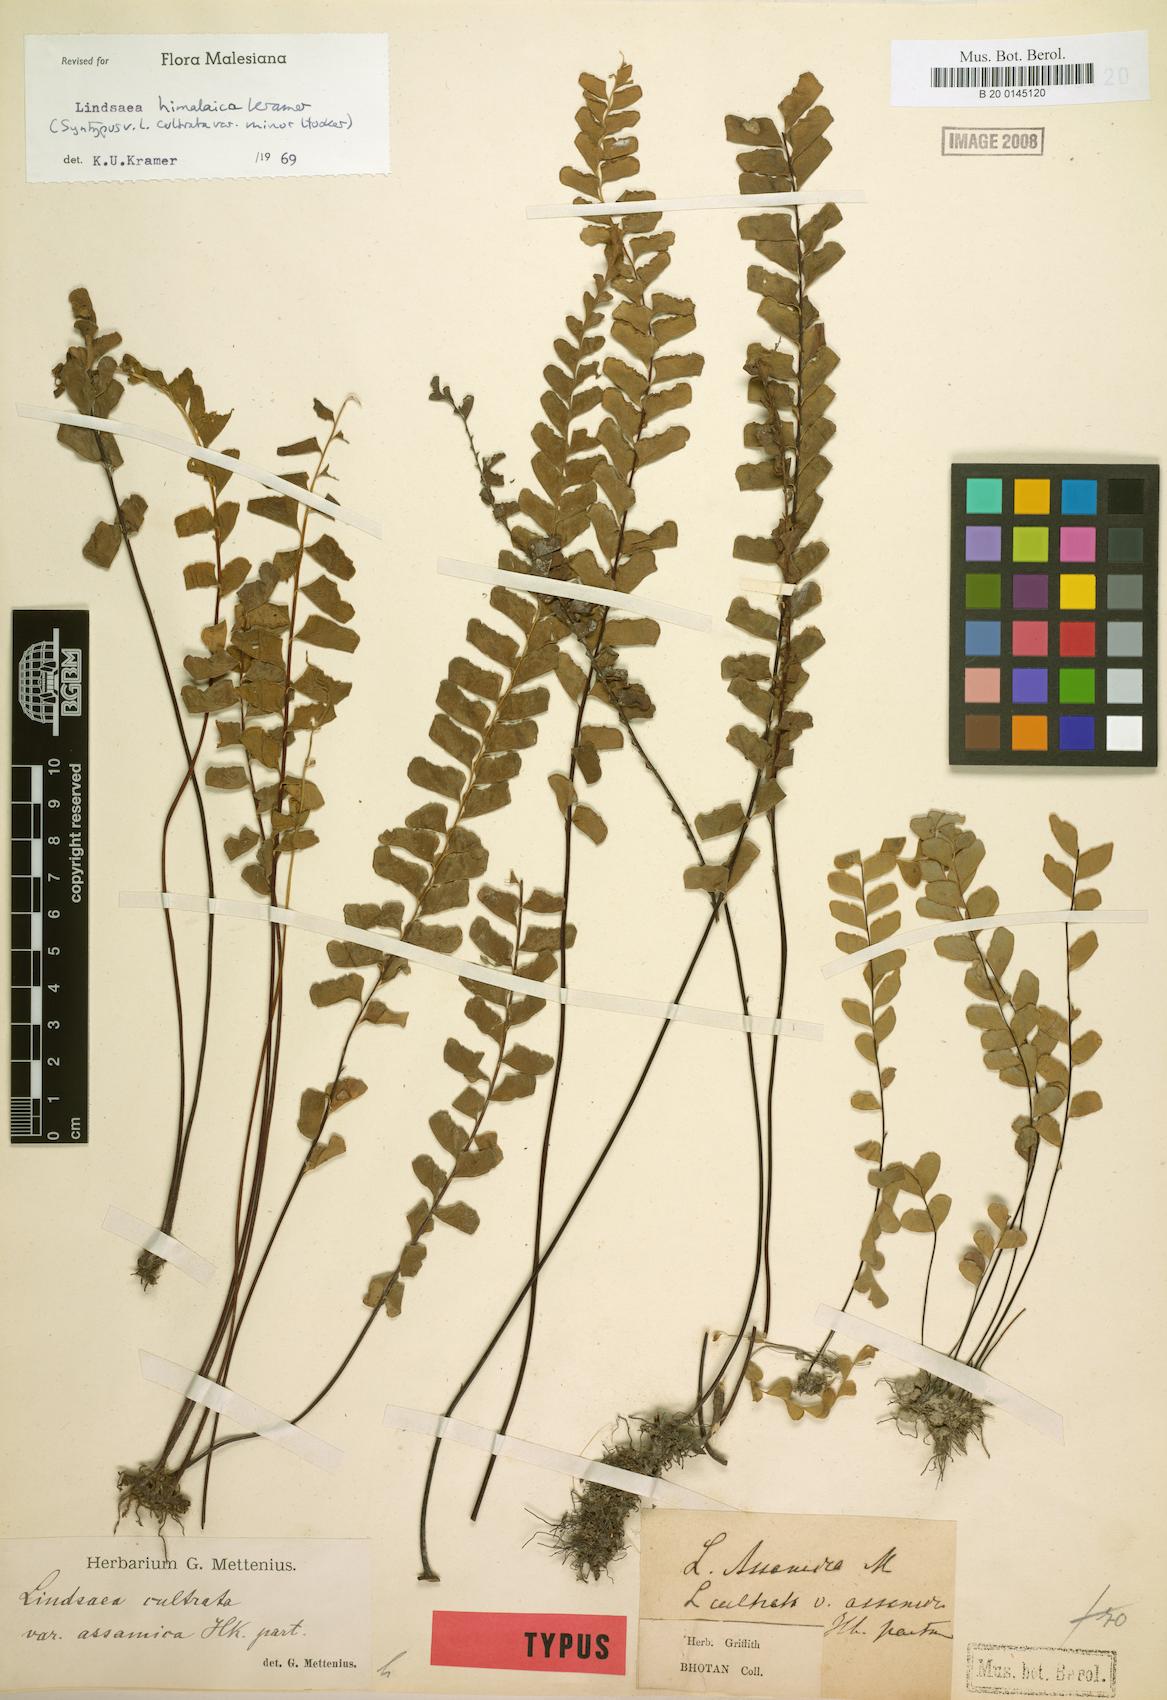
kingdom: Plantae
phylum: Tracheophyta
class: Polypodiopsida
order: Polypodiales
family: Lindsaeaceae
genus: Osmolindsaea
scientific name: Osmolindsaea himalaica
